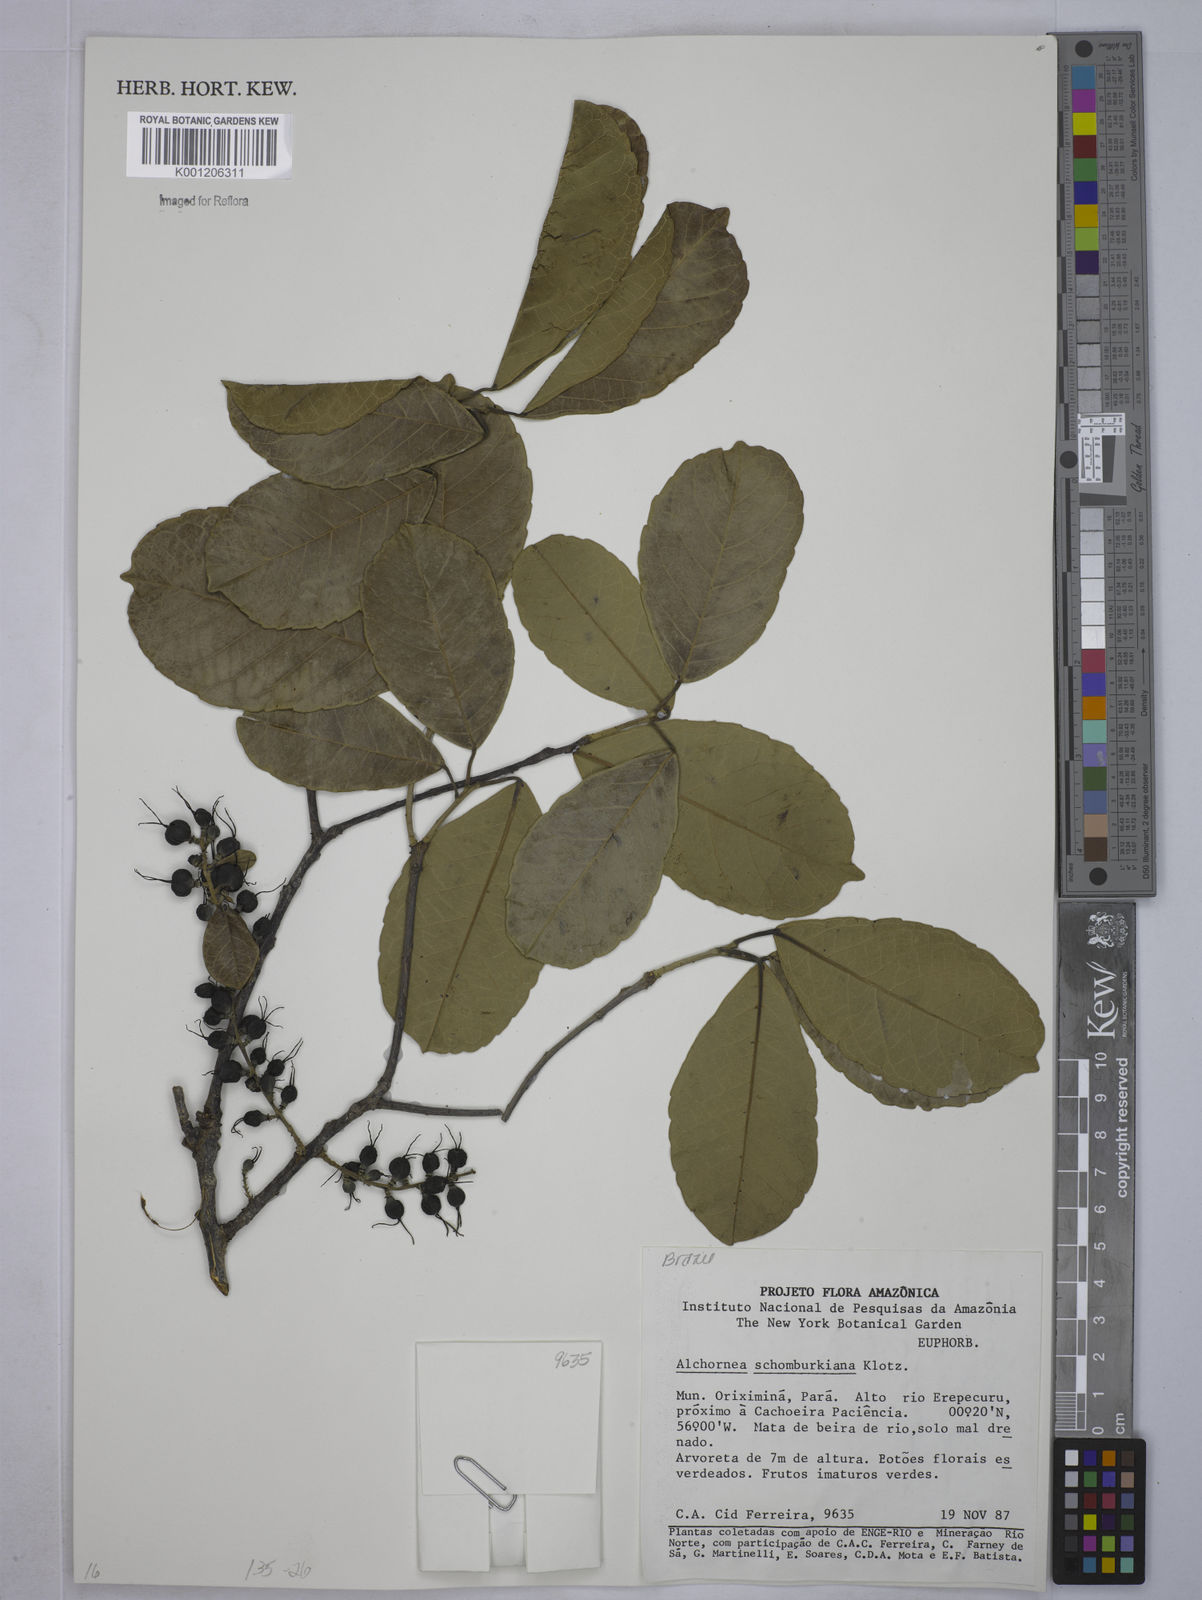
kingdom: Plantae
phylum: Tracheophyta
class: Magnoliopsida
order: Malpighiales
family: Euphorbiaceae
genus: Alchornea
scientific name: Alchornea discolor
